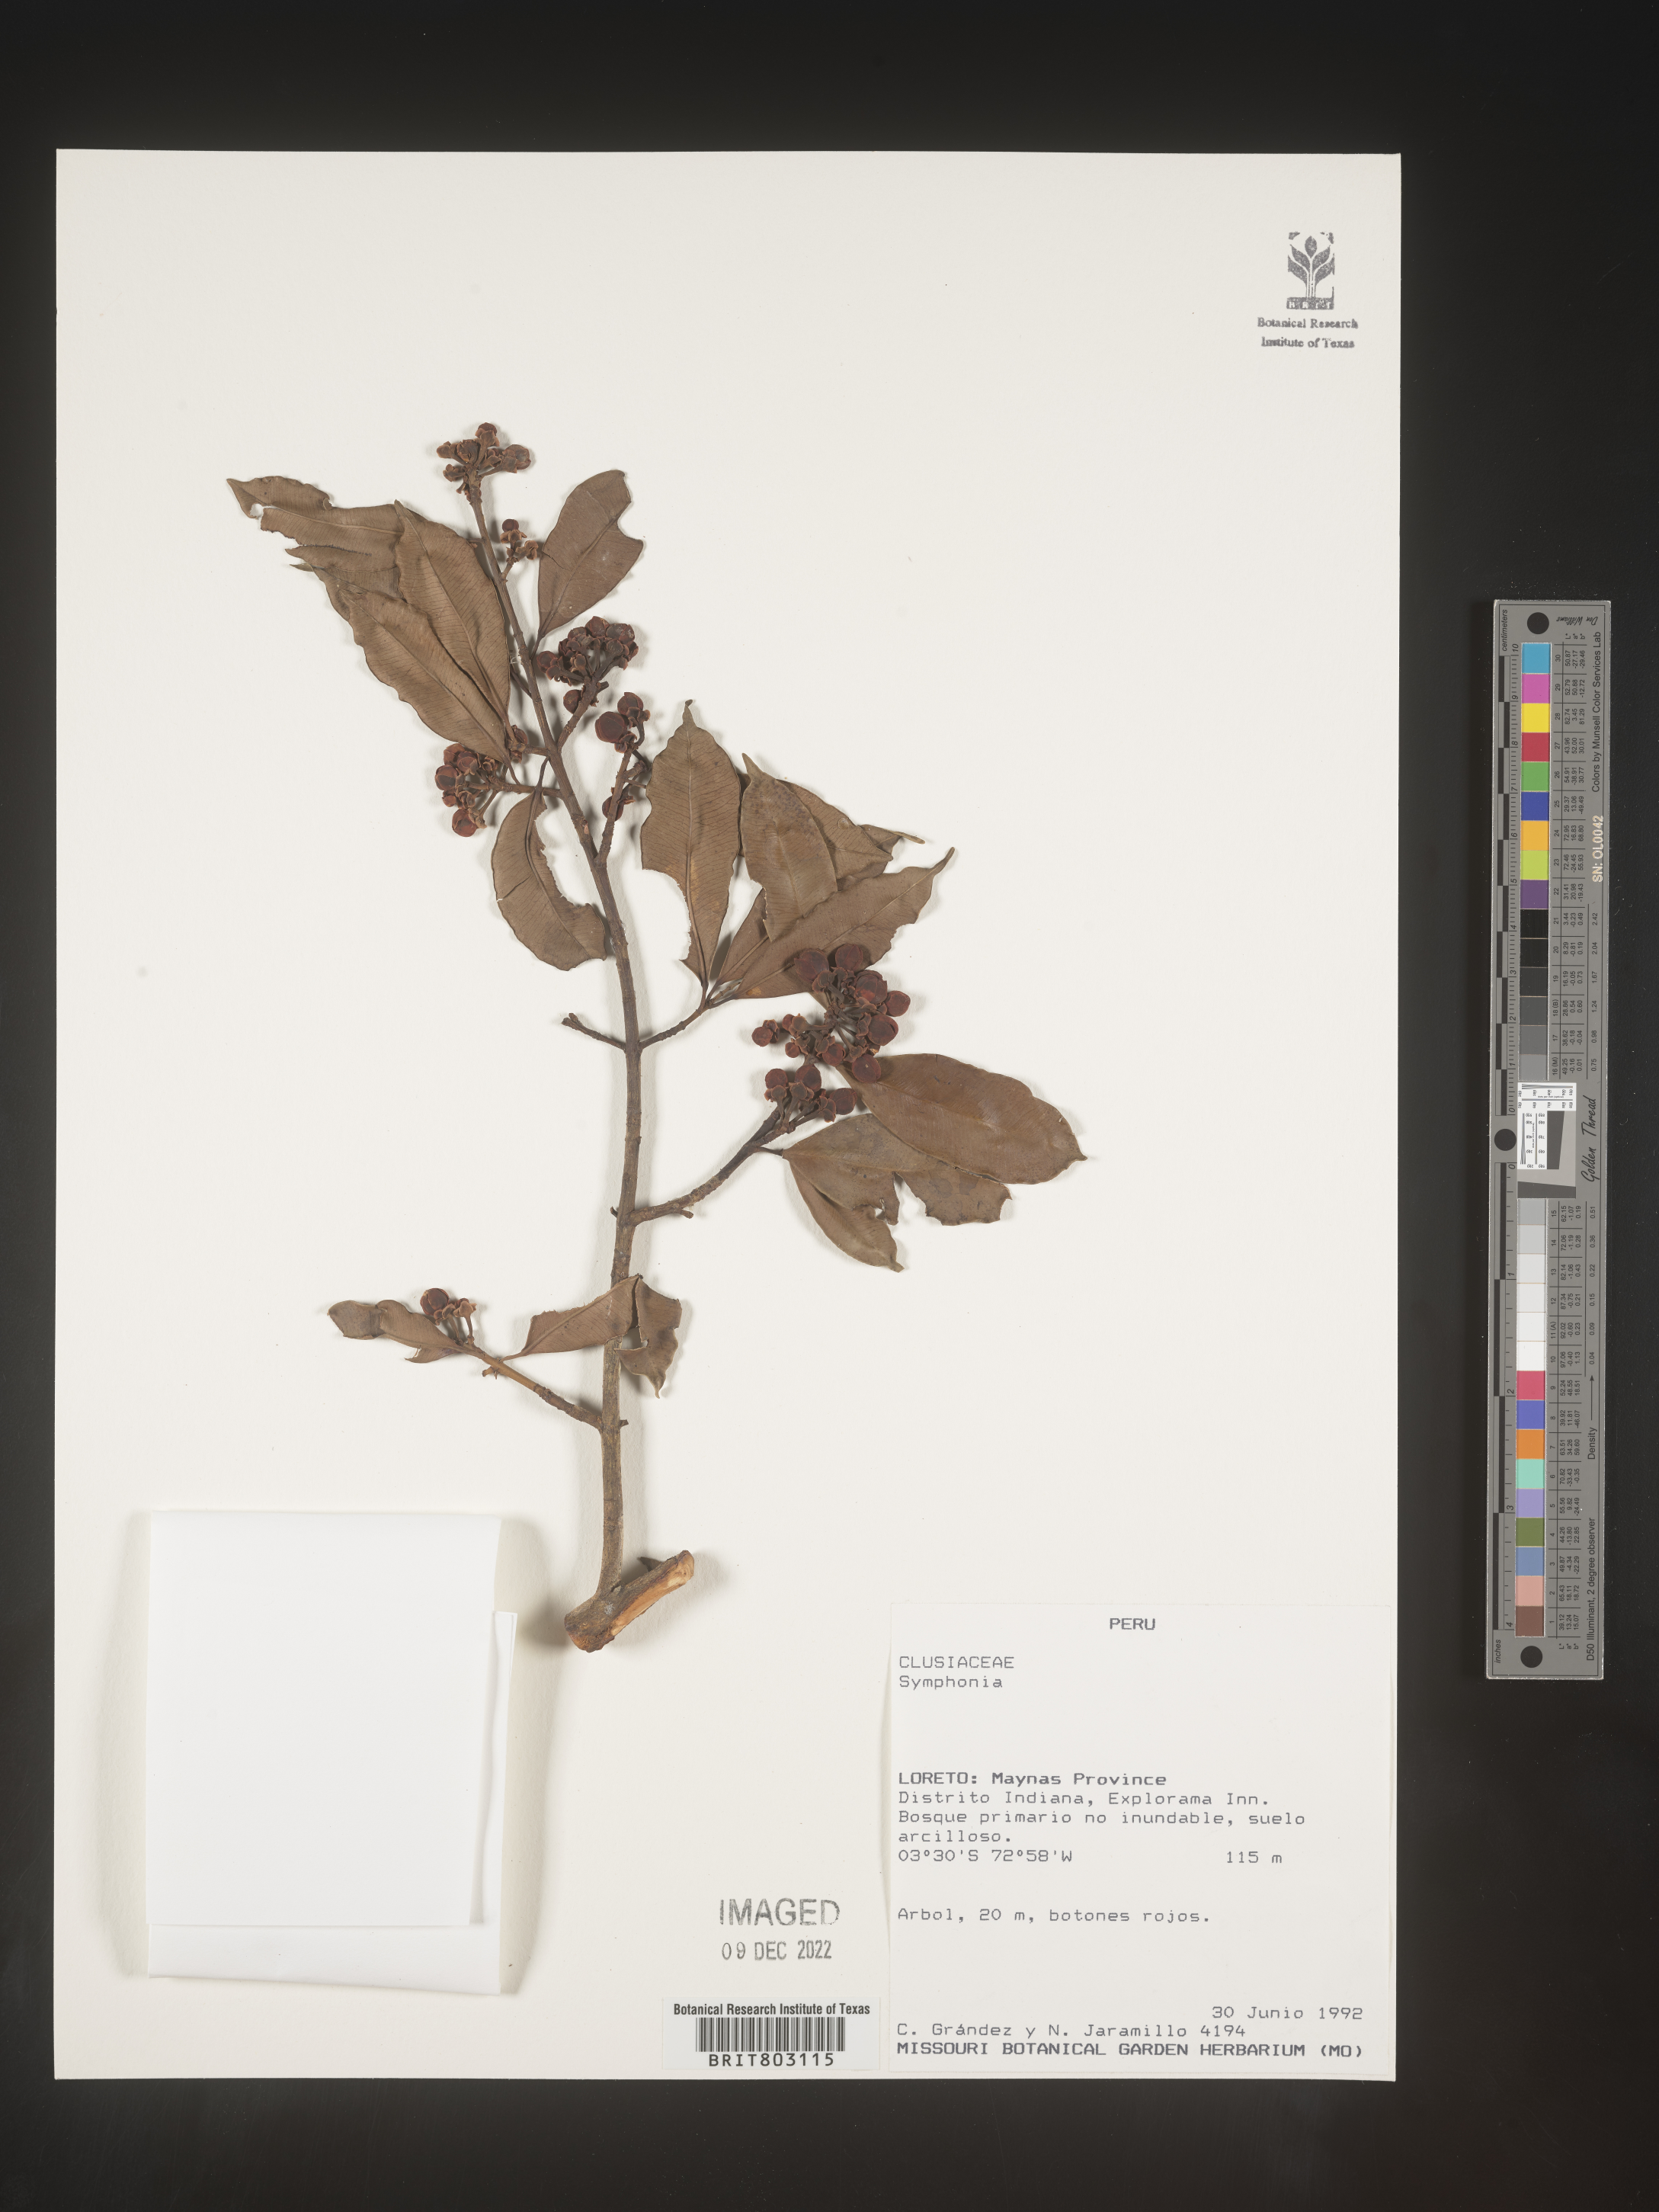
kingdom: Plantae
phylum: Tracheophyta
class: Magnoliopsida
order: Malpighiales
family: Clusiaceae
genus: Symphonia
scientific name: Symphonia
